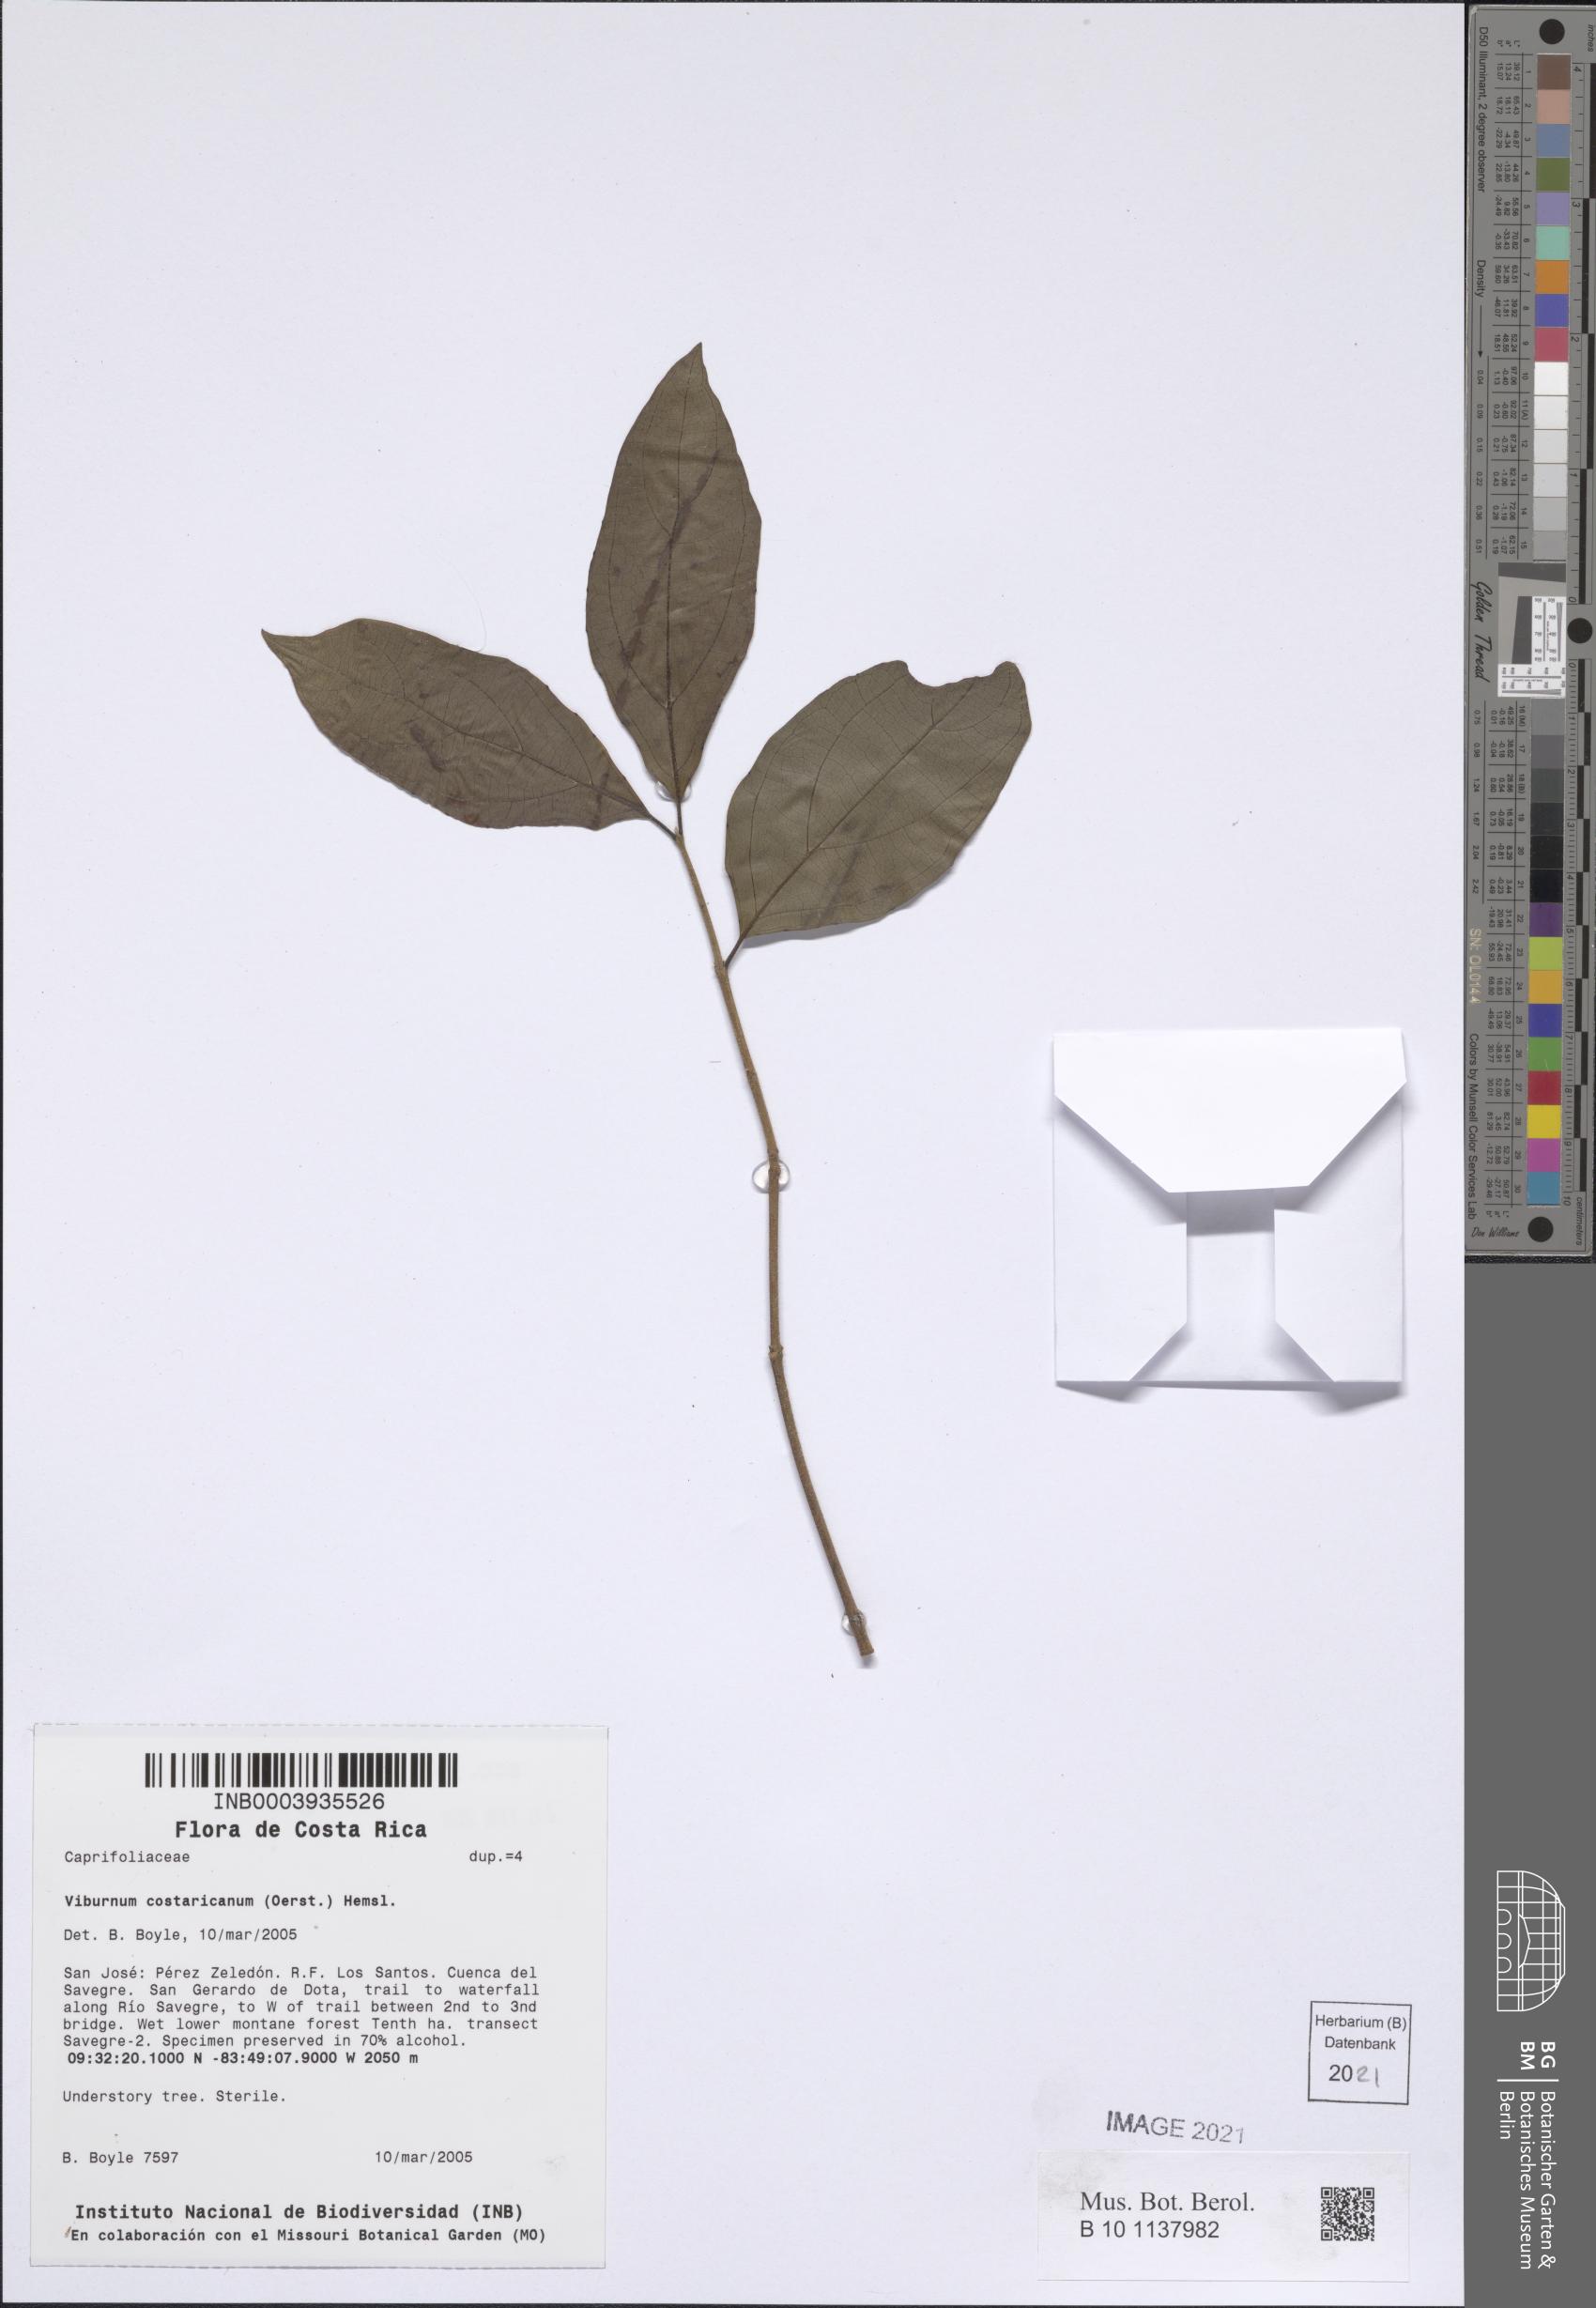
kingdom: Plantae
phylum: Tracheophyta
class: Magnoliopsida
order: Dipsacales
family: Viburnaceae
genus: Viburnum
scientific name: Viburnum costaricanum
